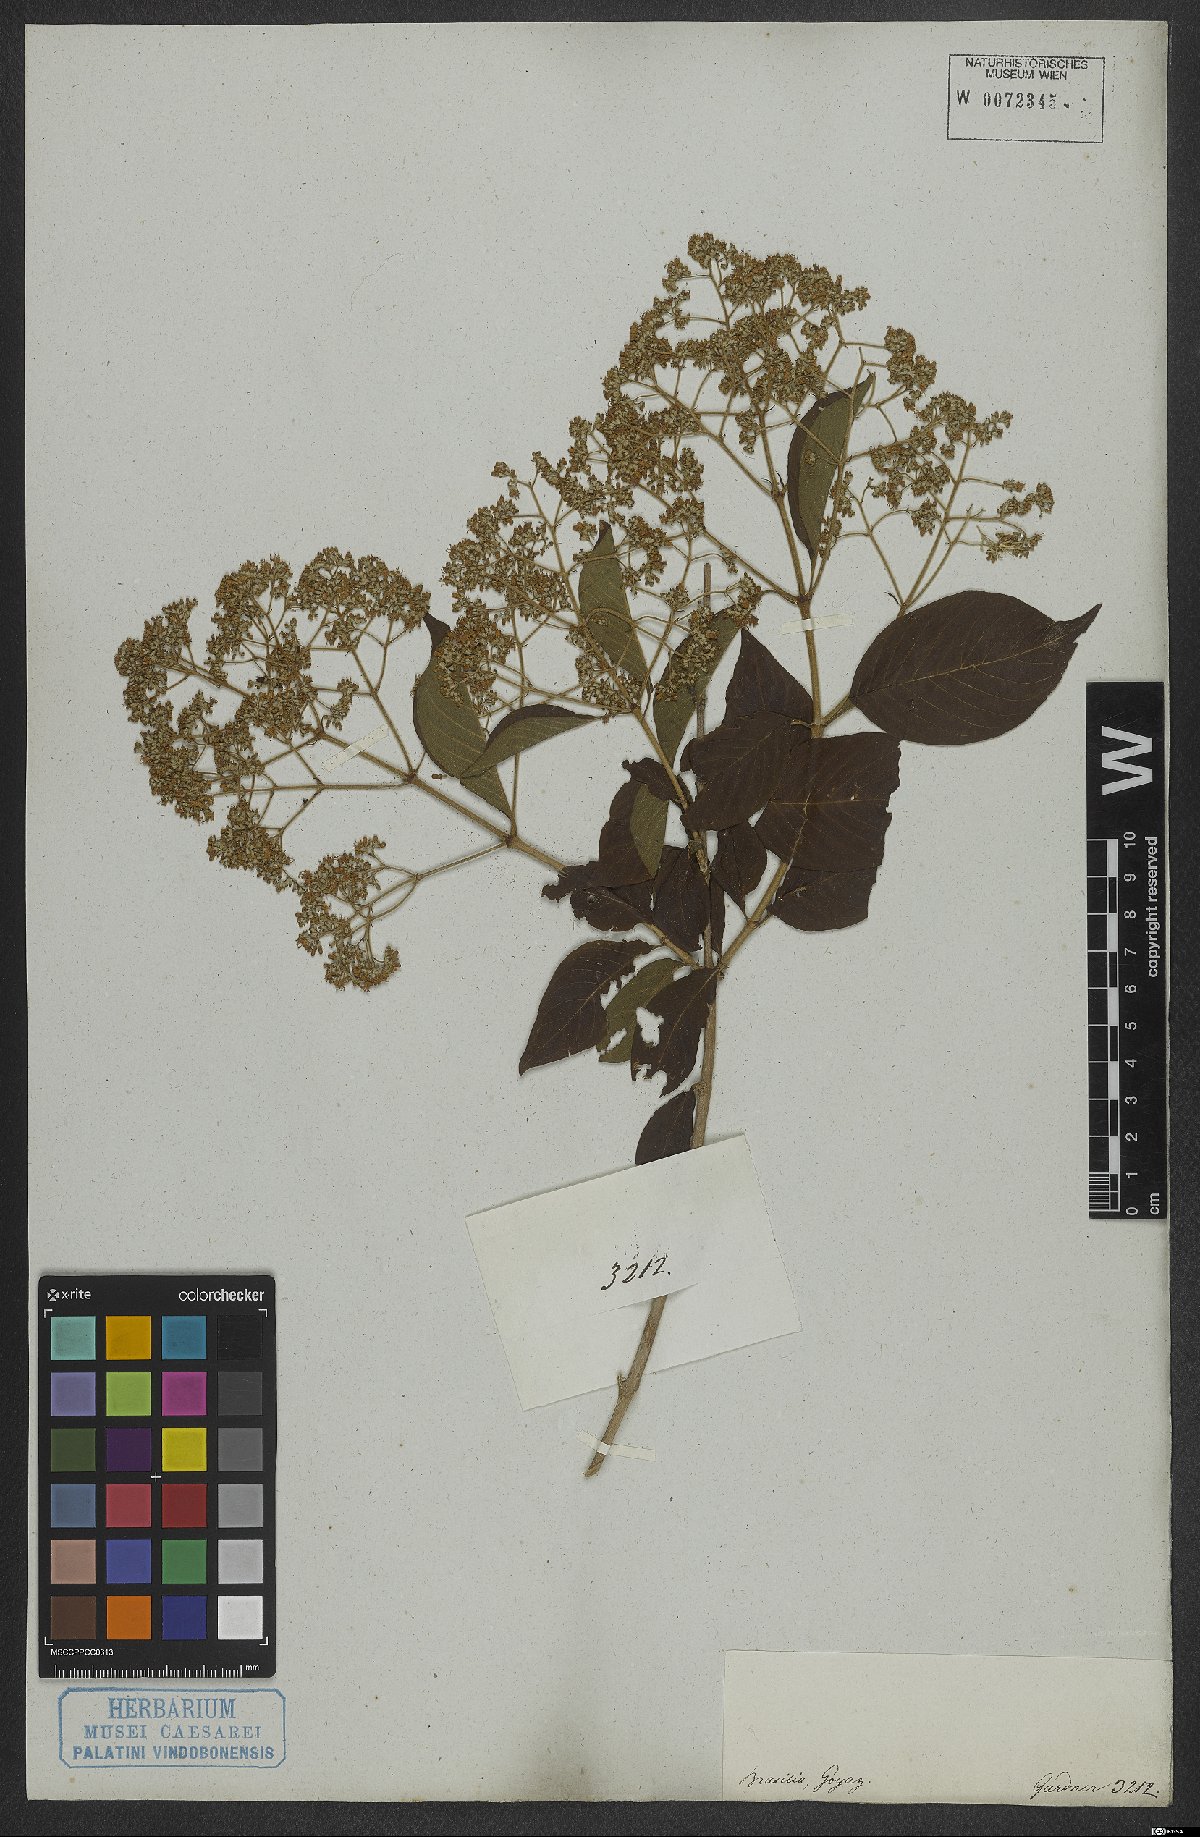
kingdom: Plantae
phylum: Tracheophyta
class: Magnoliopsida
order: Gentianales
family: Rubiaceae
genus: Machaonia
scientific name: Machaonia
